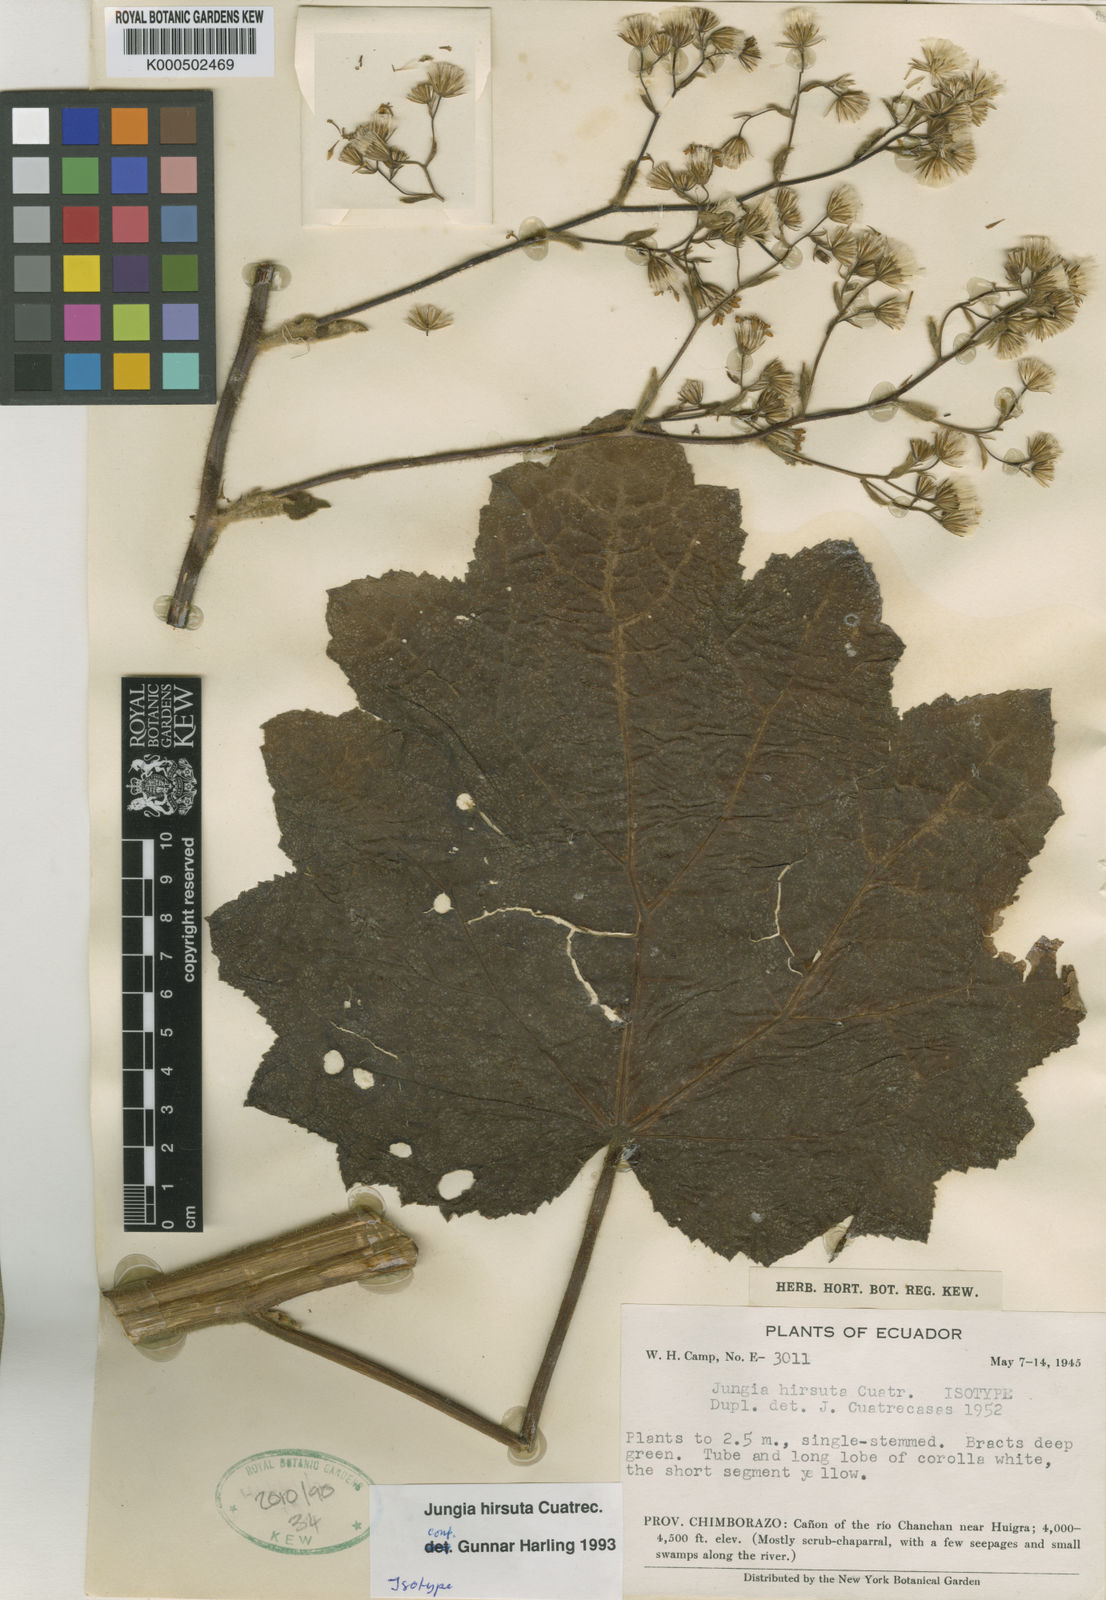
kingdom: Plantae
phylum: Tracheophyta
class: Magnoliopsida
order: Asterales
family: Asteraceae
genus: Jungia
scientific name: Jungia hirsuta
